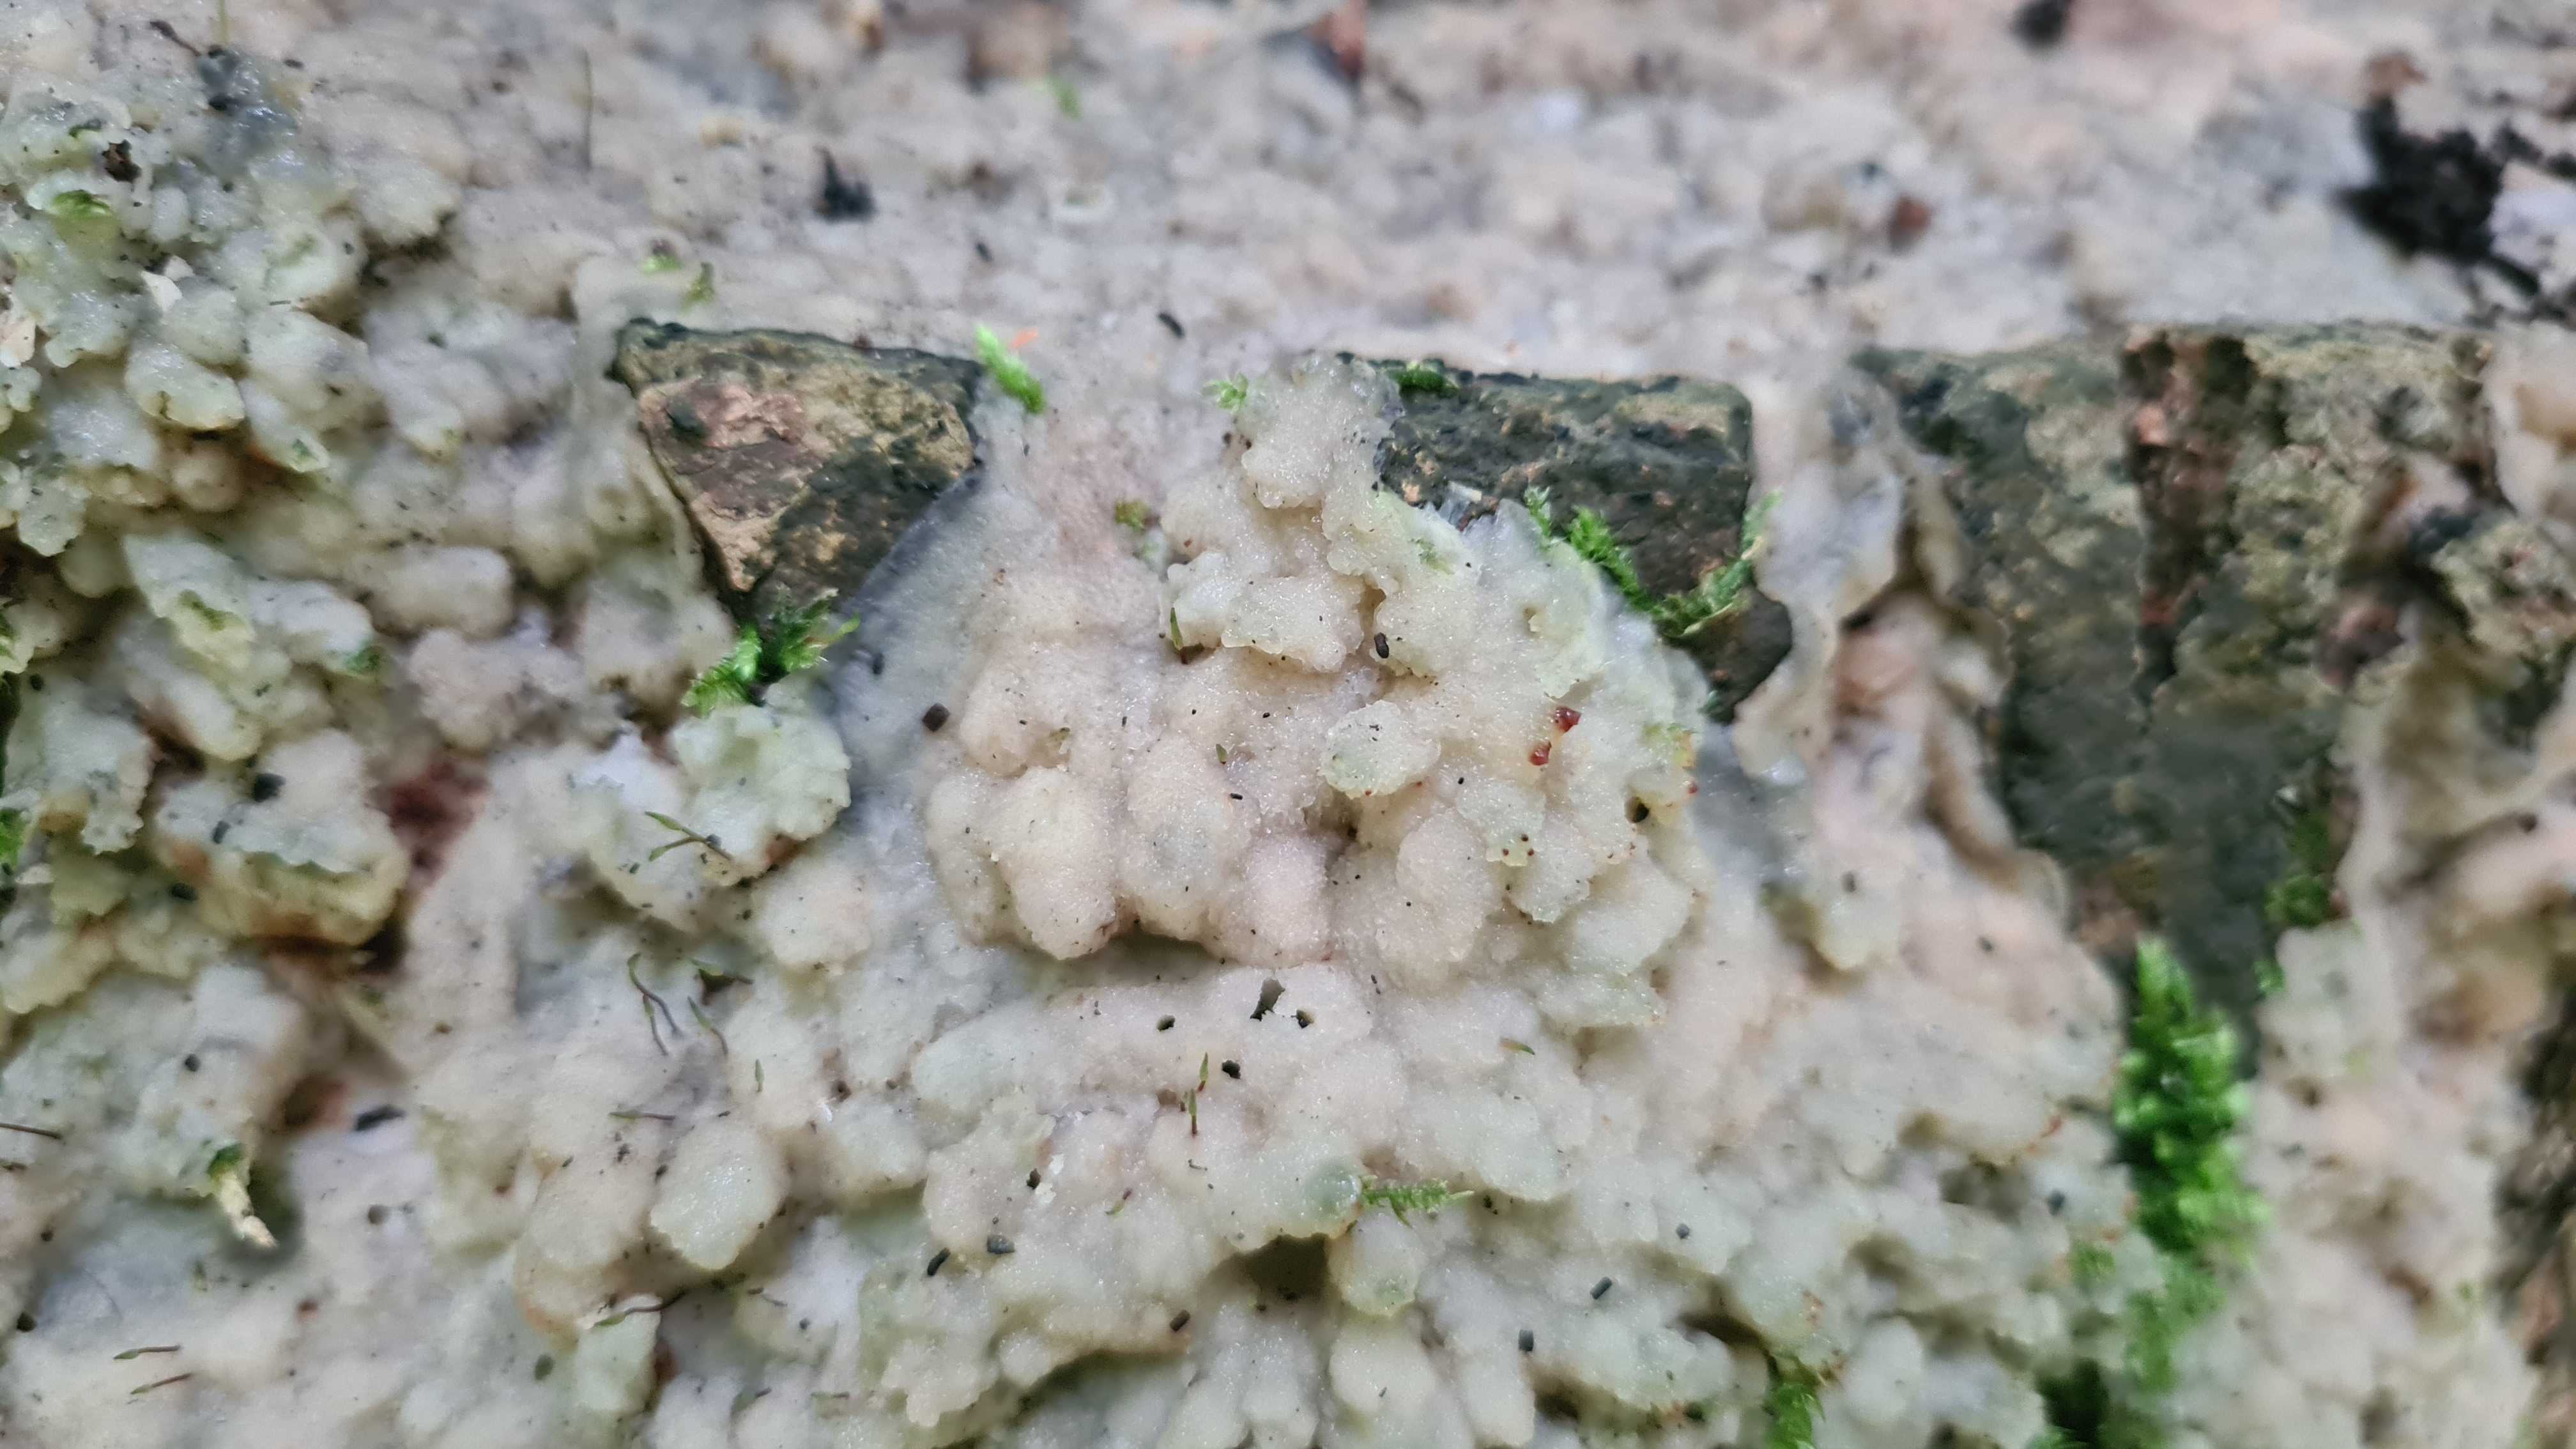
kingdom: Fungi
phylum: Basidiomycota
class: Agaricomycetes
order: Polyporales
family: Meruliaceae
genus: Physisporinus
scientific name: Physisporinus vitreus
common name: mastesvamp
